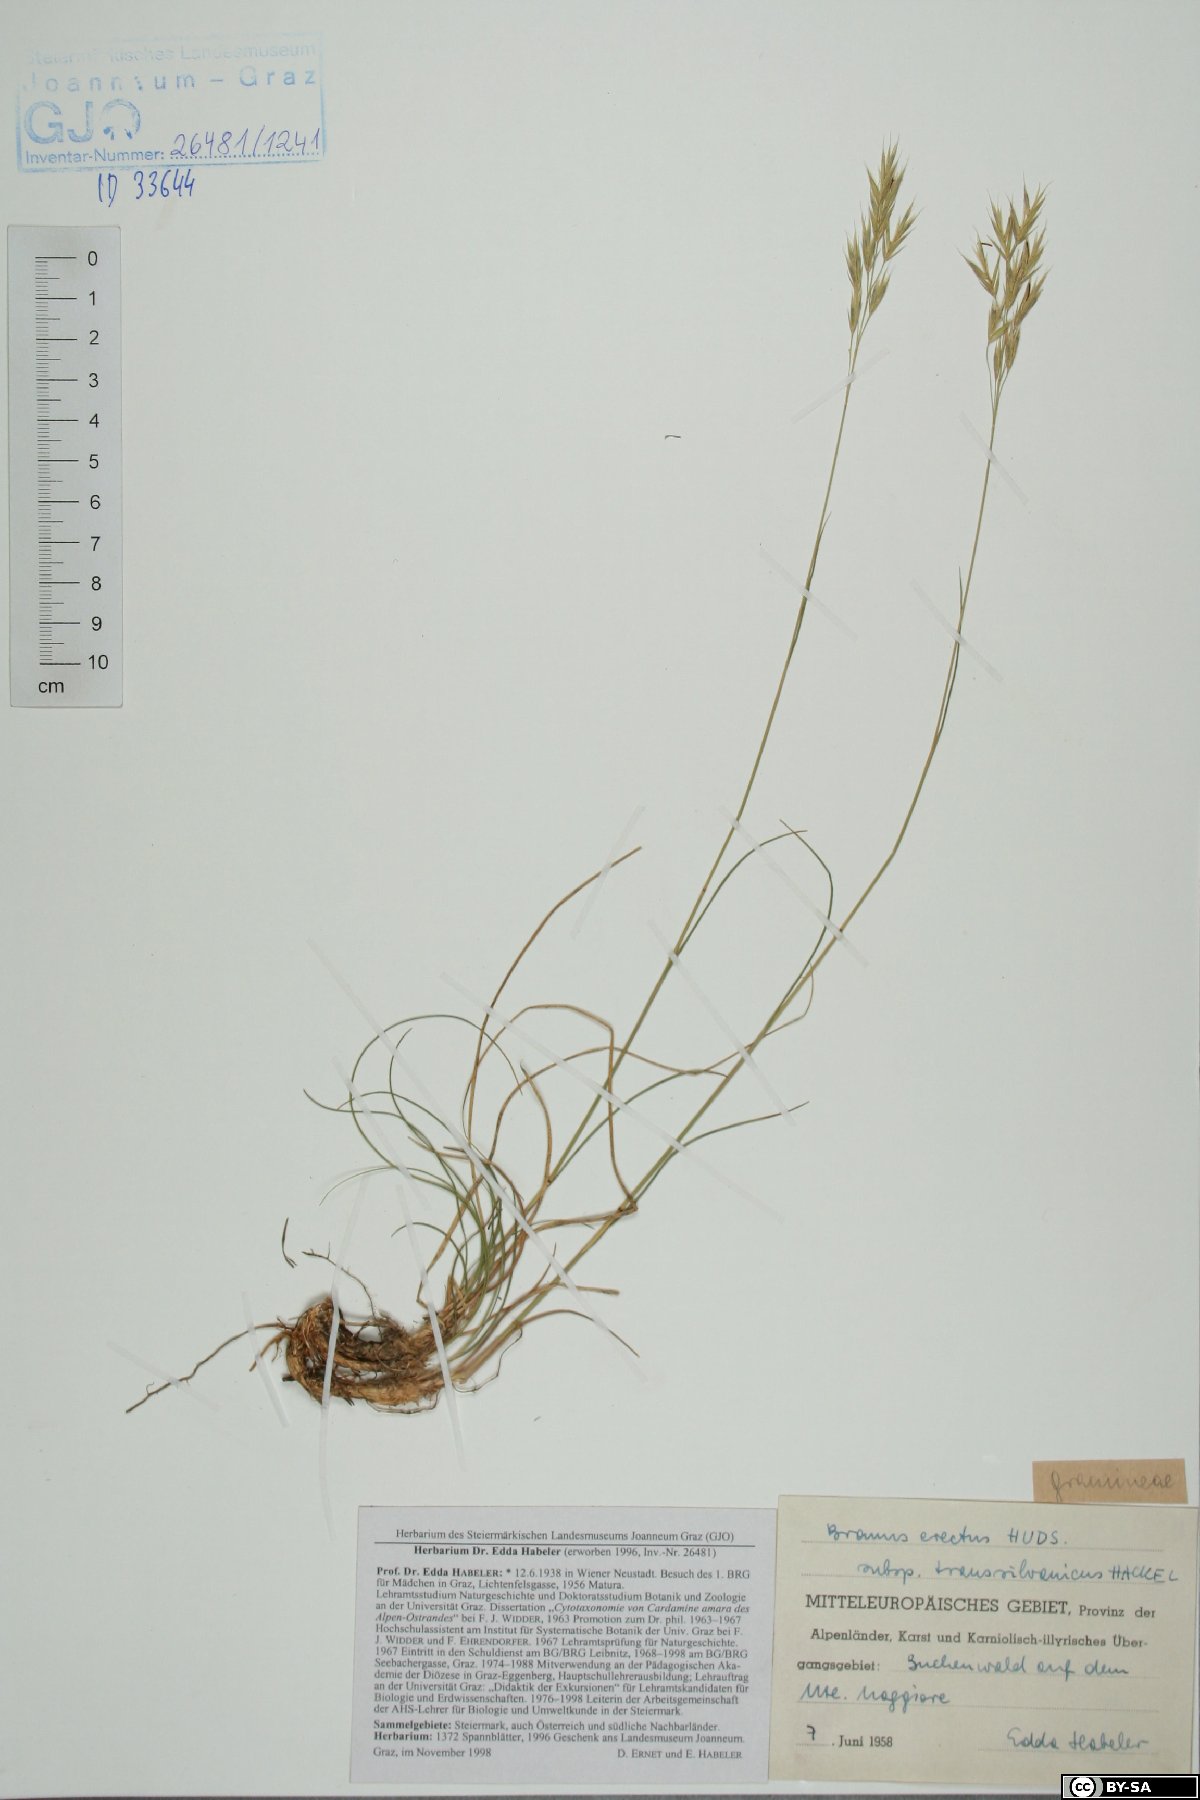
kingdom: Plantae
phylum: Tracheophyta
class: Liliopsida
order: Poales
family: Poaceae
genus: Bromus
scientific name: Bromus erectus
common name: Erect brome
